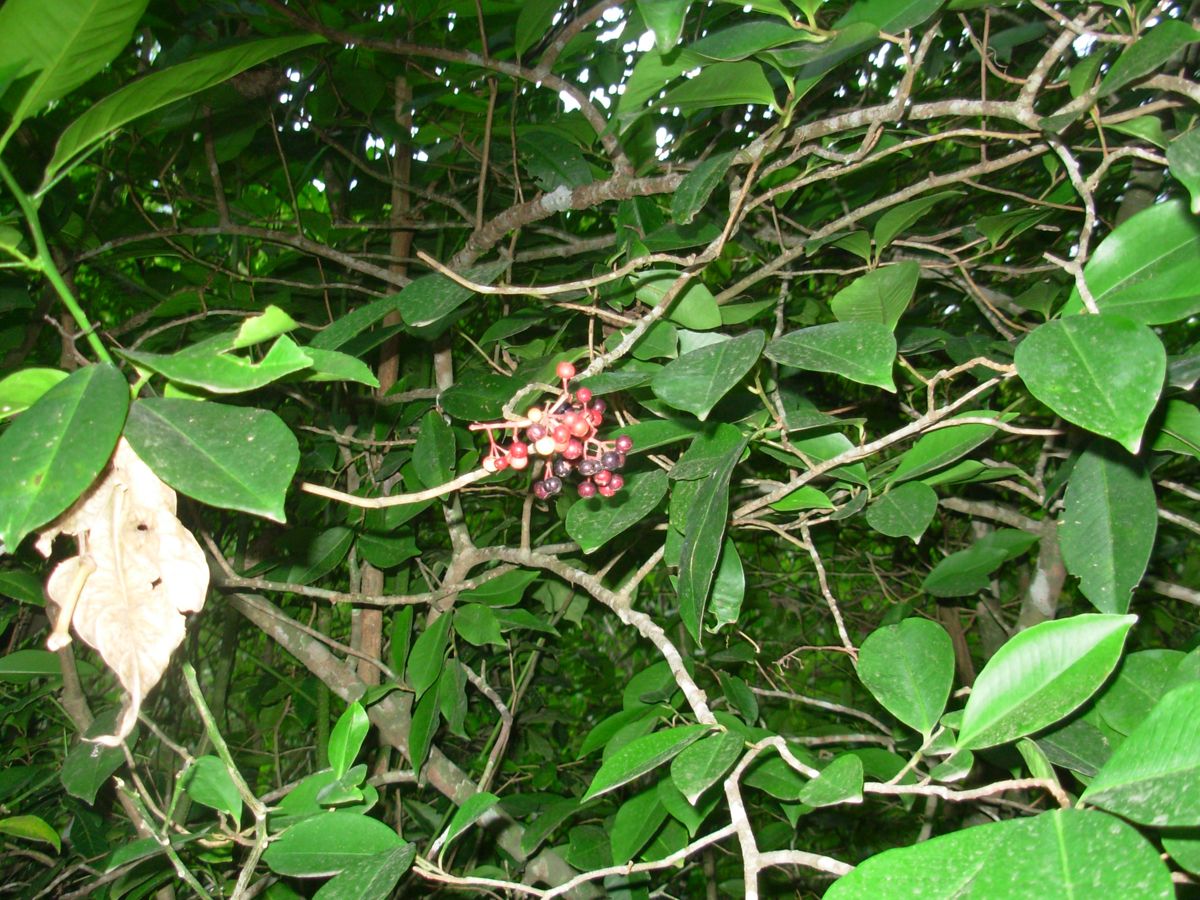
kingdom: Plantae
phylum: Tracheophyta
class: Magnoliopsida
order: Ericales
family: Primulaceae
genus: Ardisia
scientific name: Ardisia compressa
